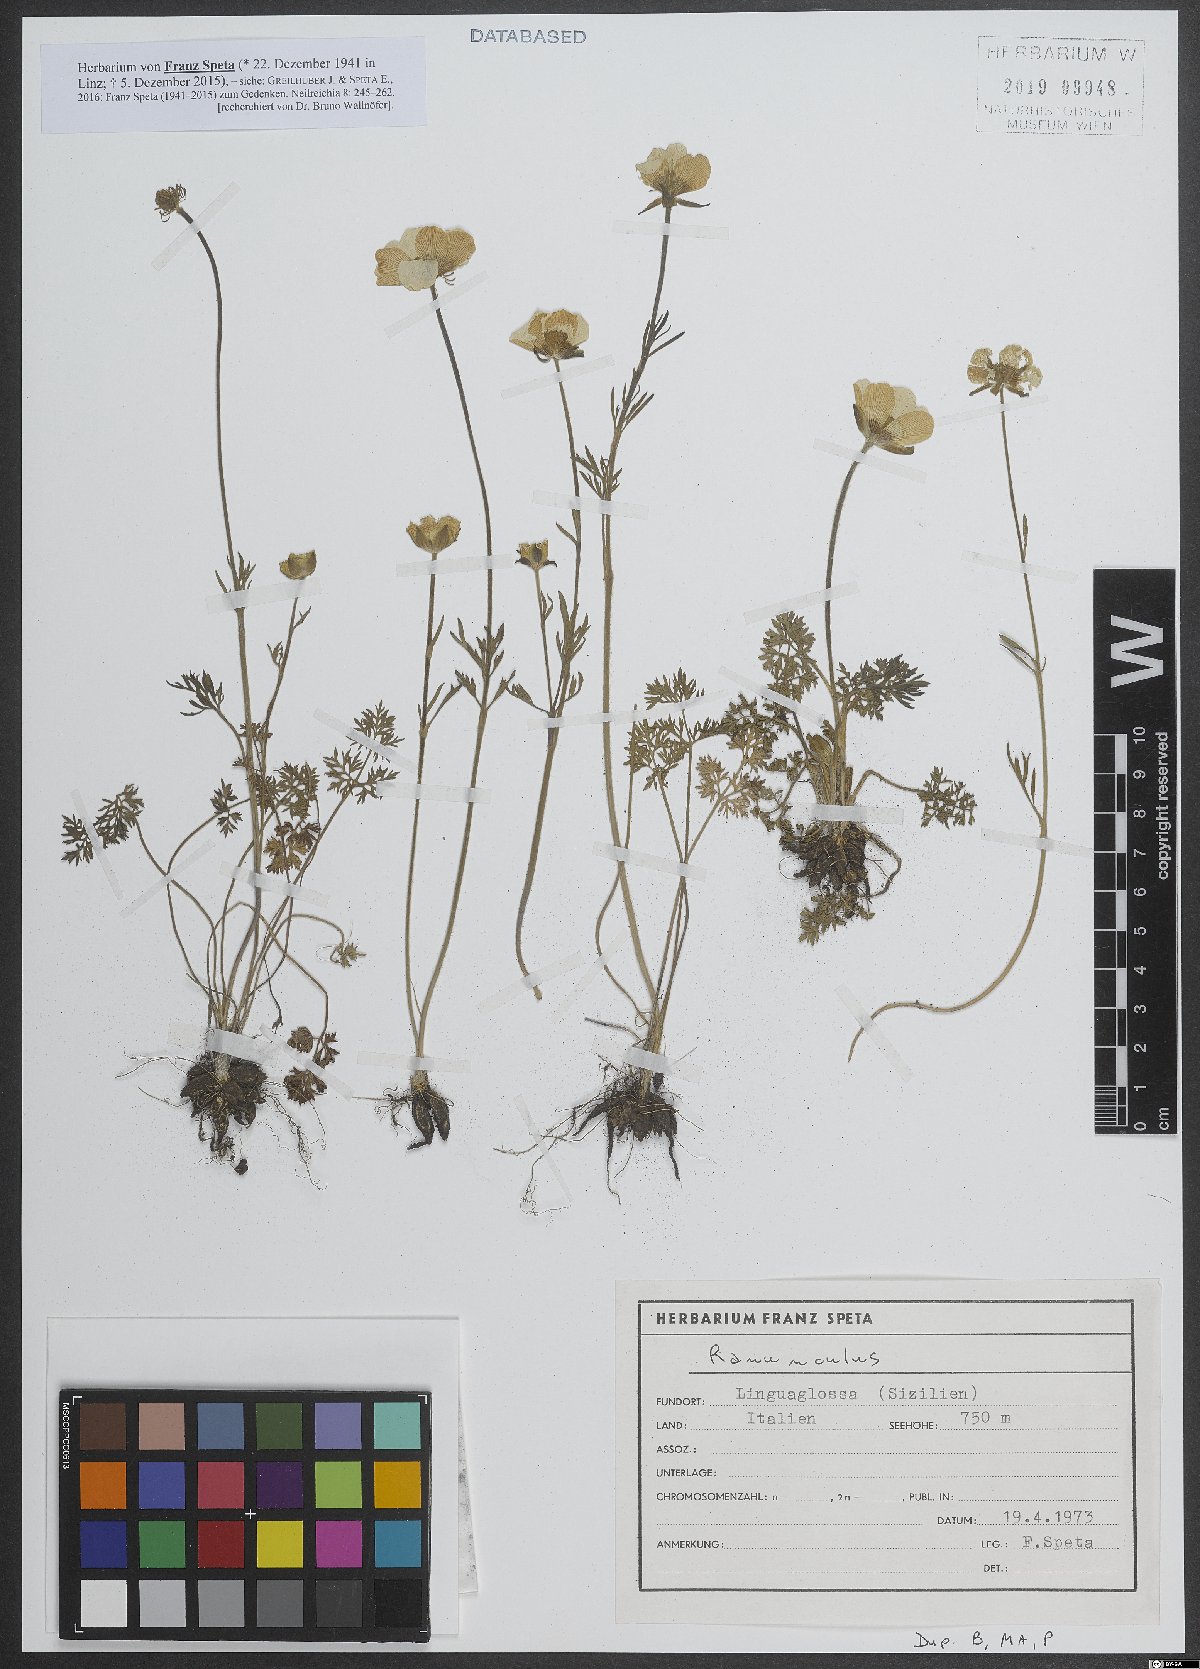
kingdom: Plantae
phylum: Tracheophyta
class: Magnoliopsida
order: Ranunculales
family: Ranunculaceae
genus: Ranunculus
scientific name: Ranunculus
